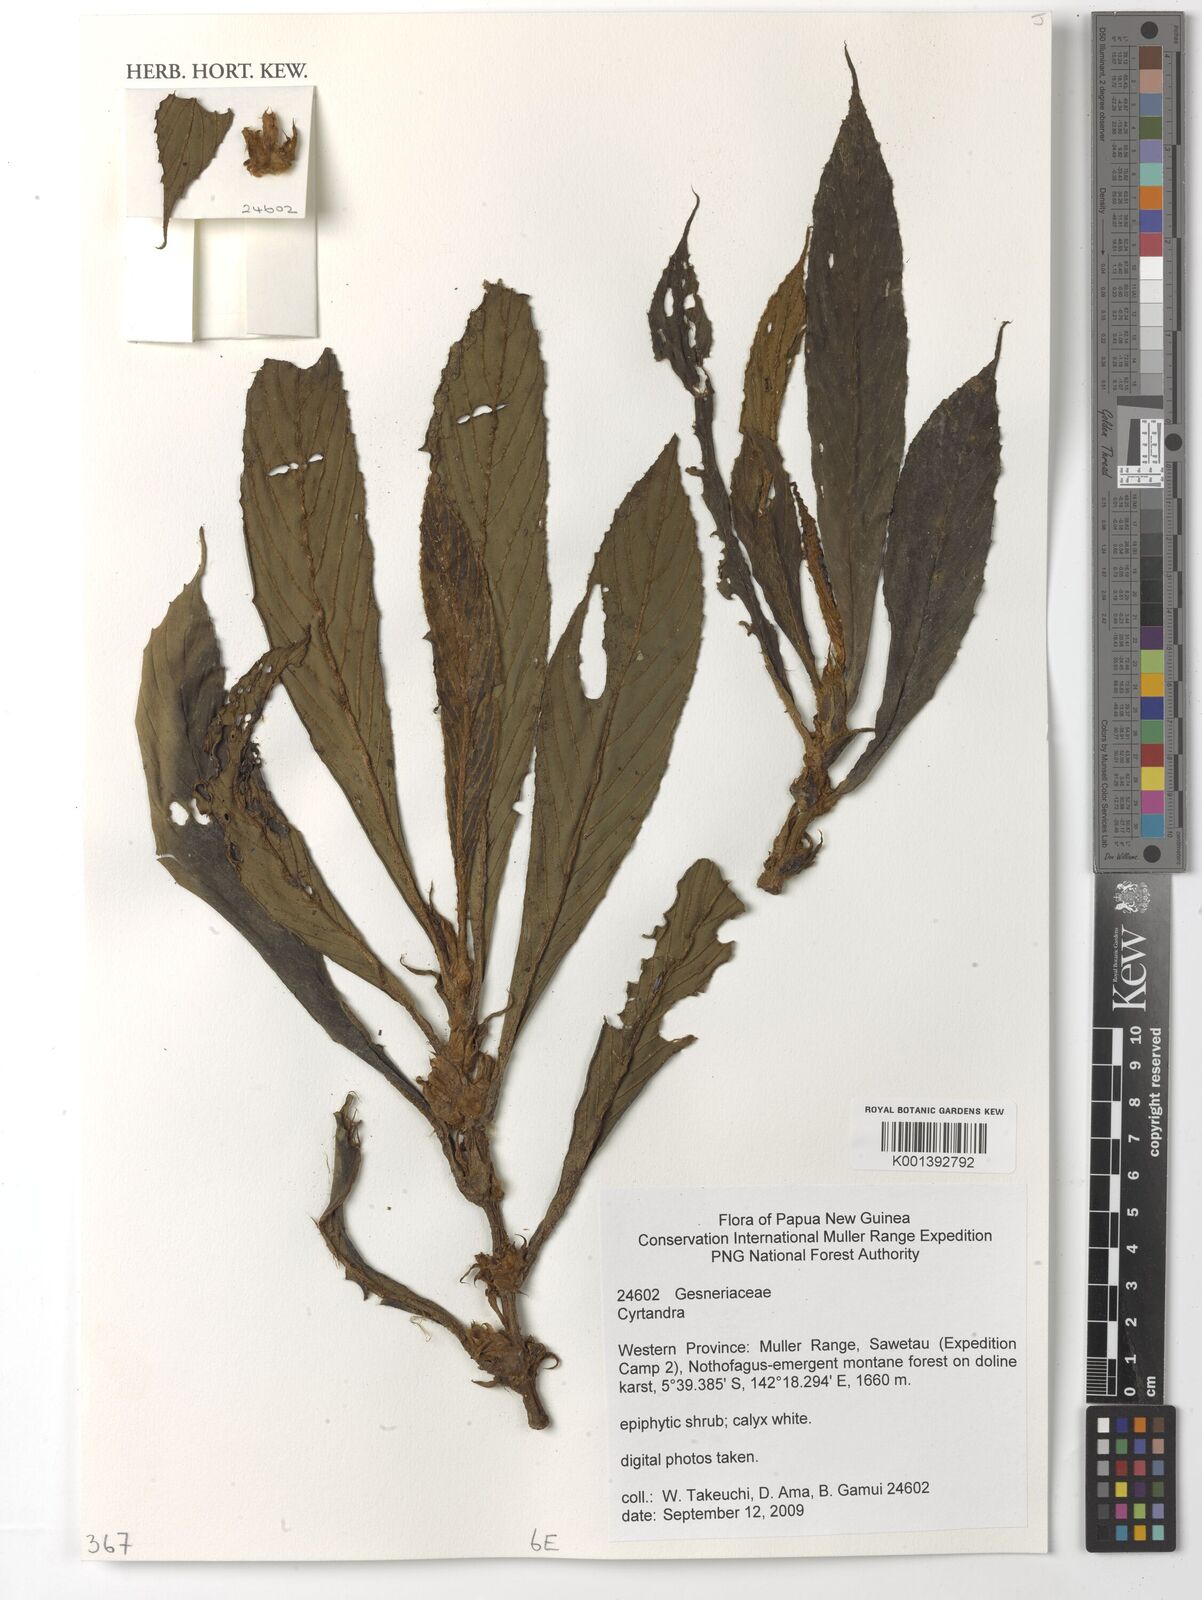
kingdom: Plantae
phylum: Tracheophyta
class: Magnoliopsida
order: Lamiales
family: Gesneriaceae
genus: Cyrtandra
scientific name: Cyrtandra
